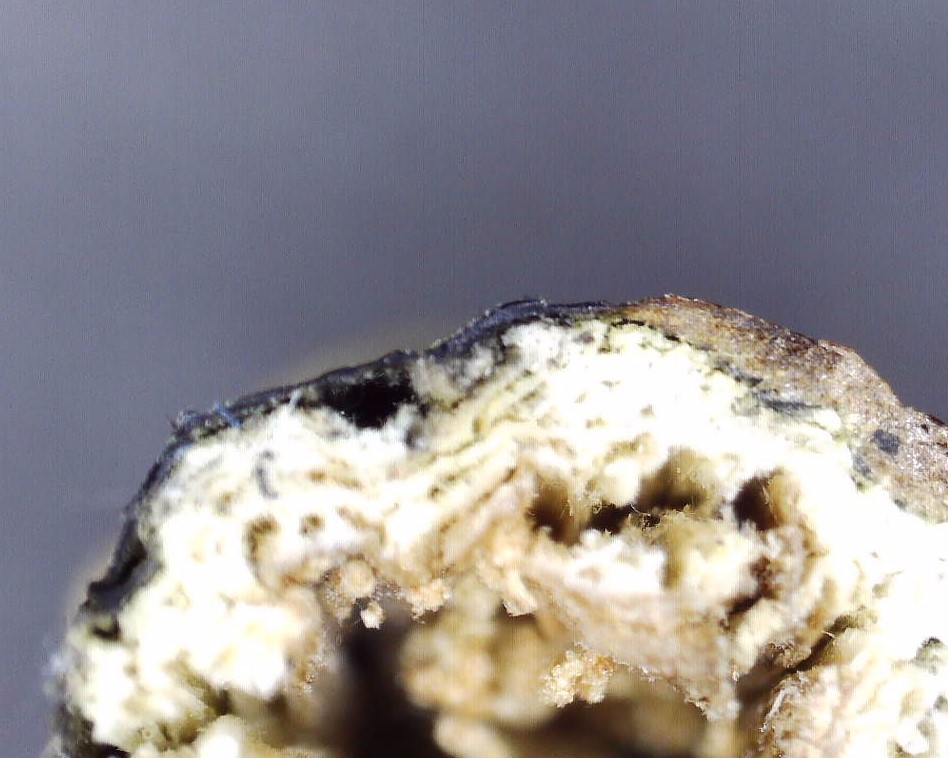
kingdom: Fungi
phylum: Ascomycota
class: Sordariomycetes
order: Diaporthales
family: Diaporthaceae
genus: Diaporthopsis
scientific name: Diaporthopsis urticae
